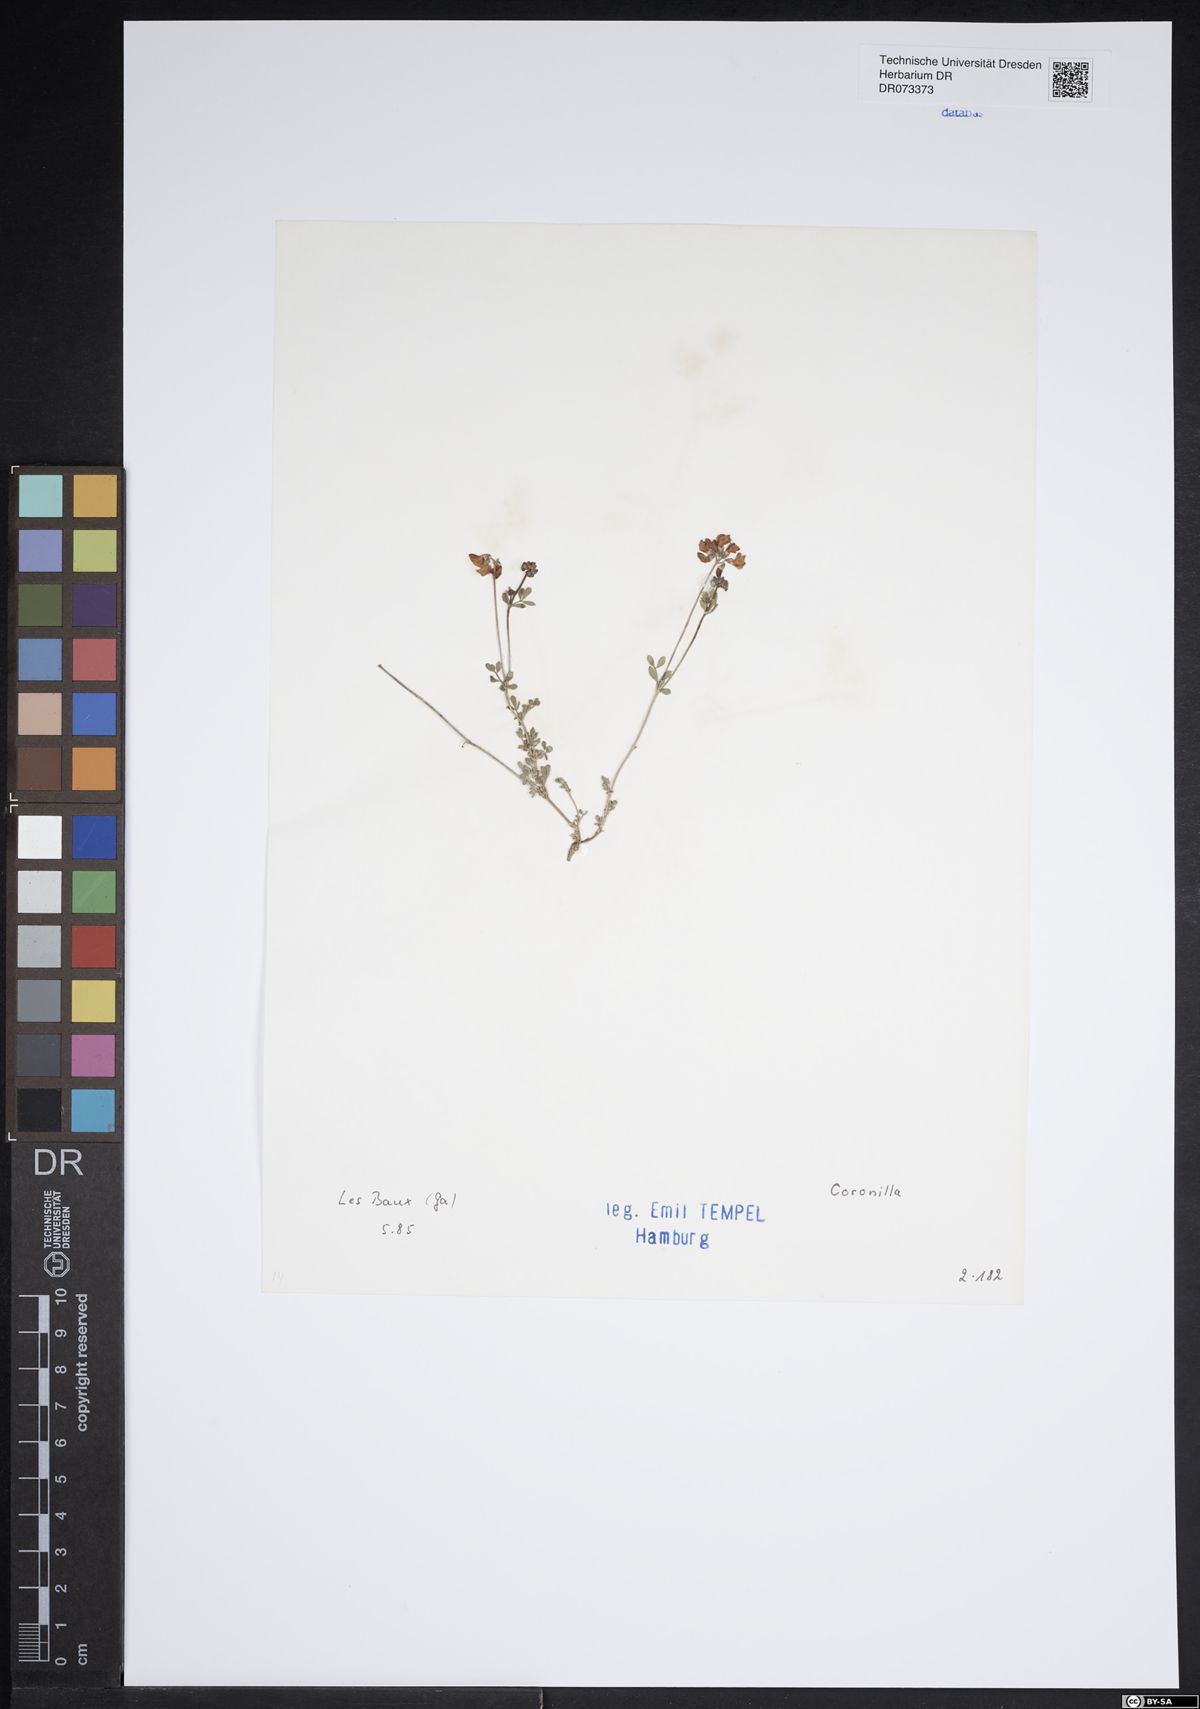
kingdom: Plantae
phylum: Tracheophyta
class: Magnoliopsida
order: Fabales
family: Fabaceae
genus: Coronilla
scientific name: Coronilla
